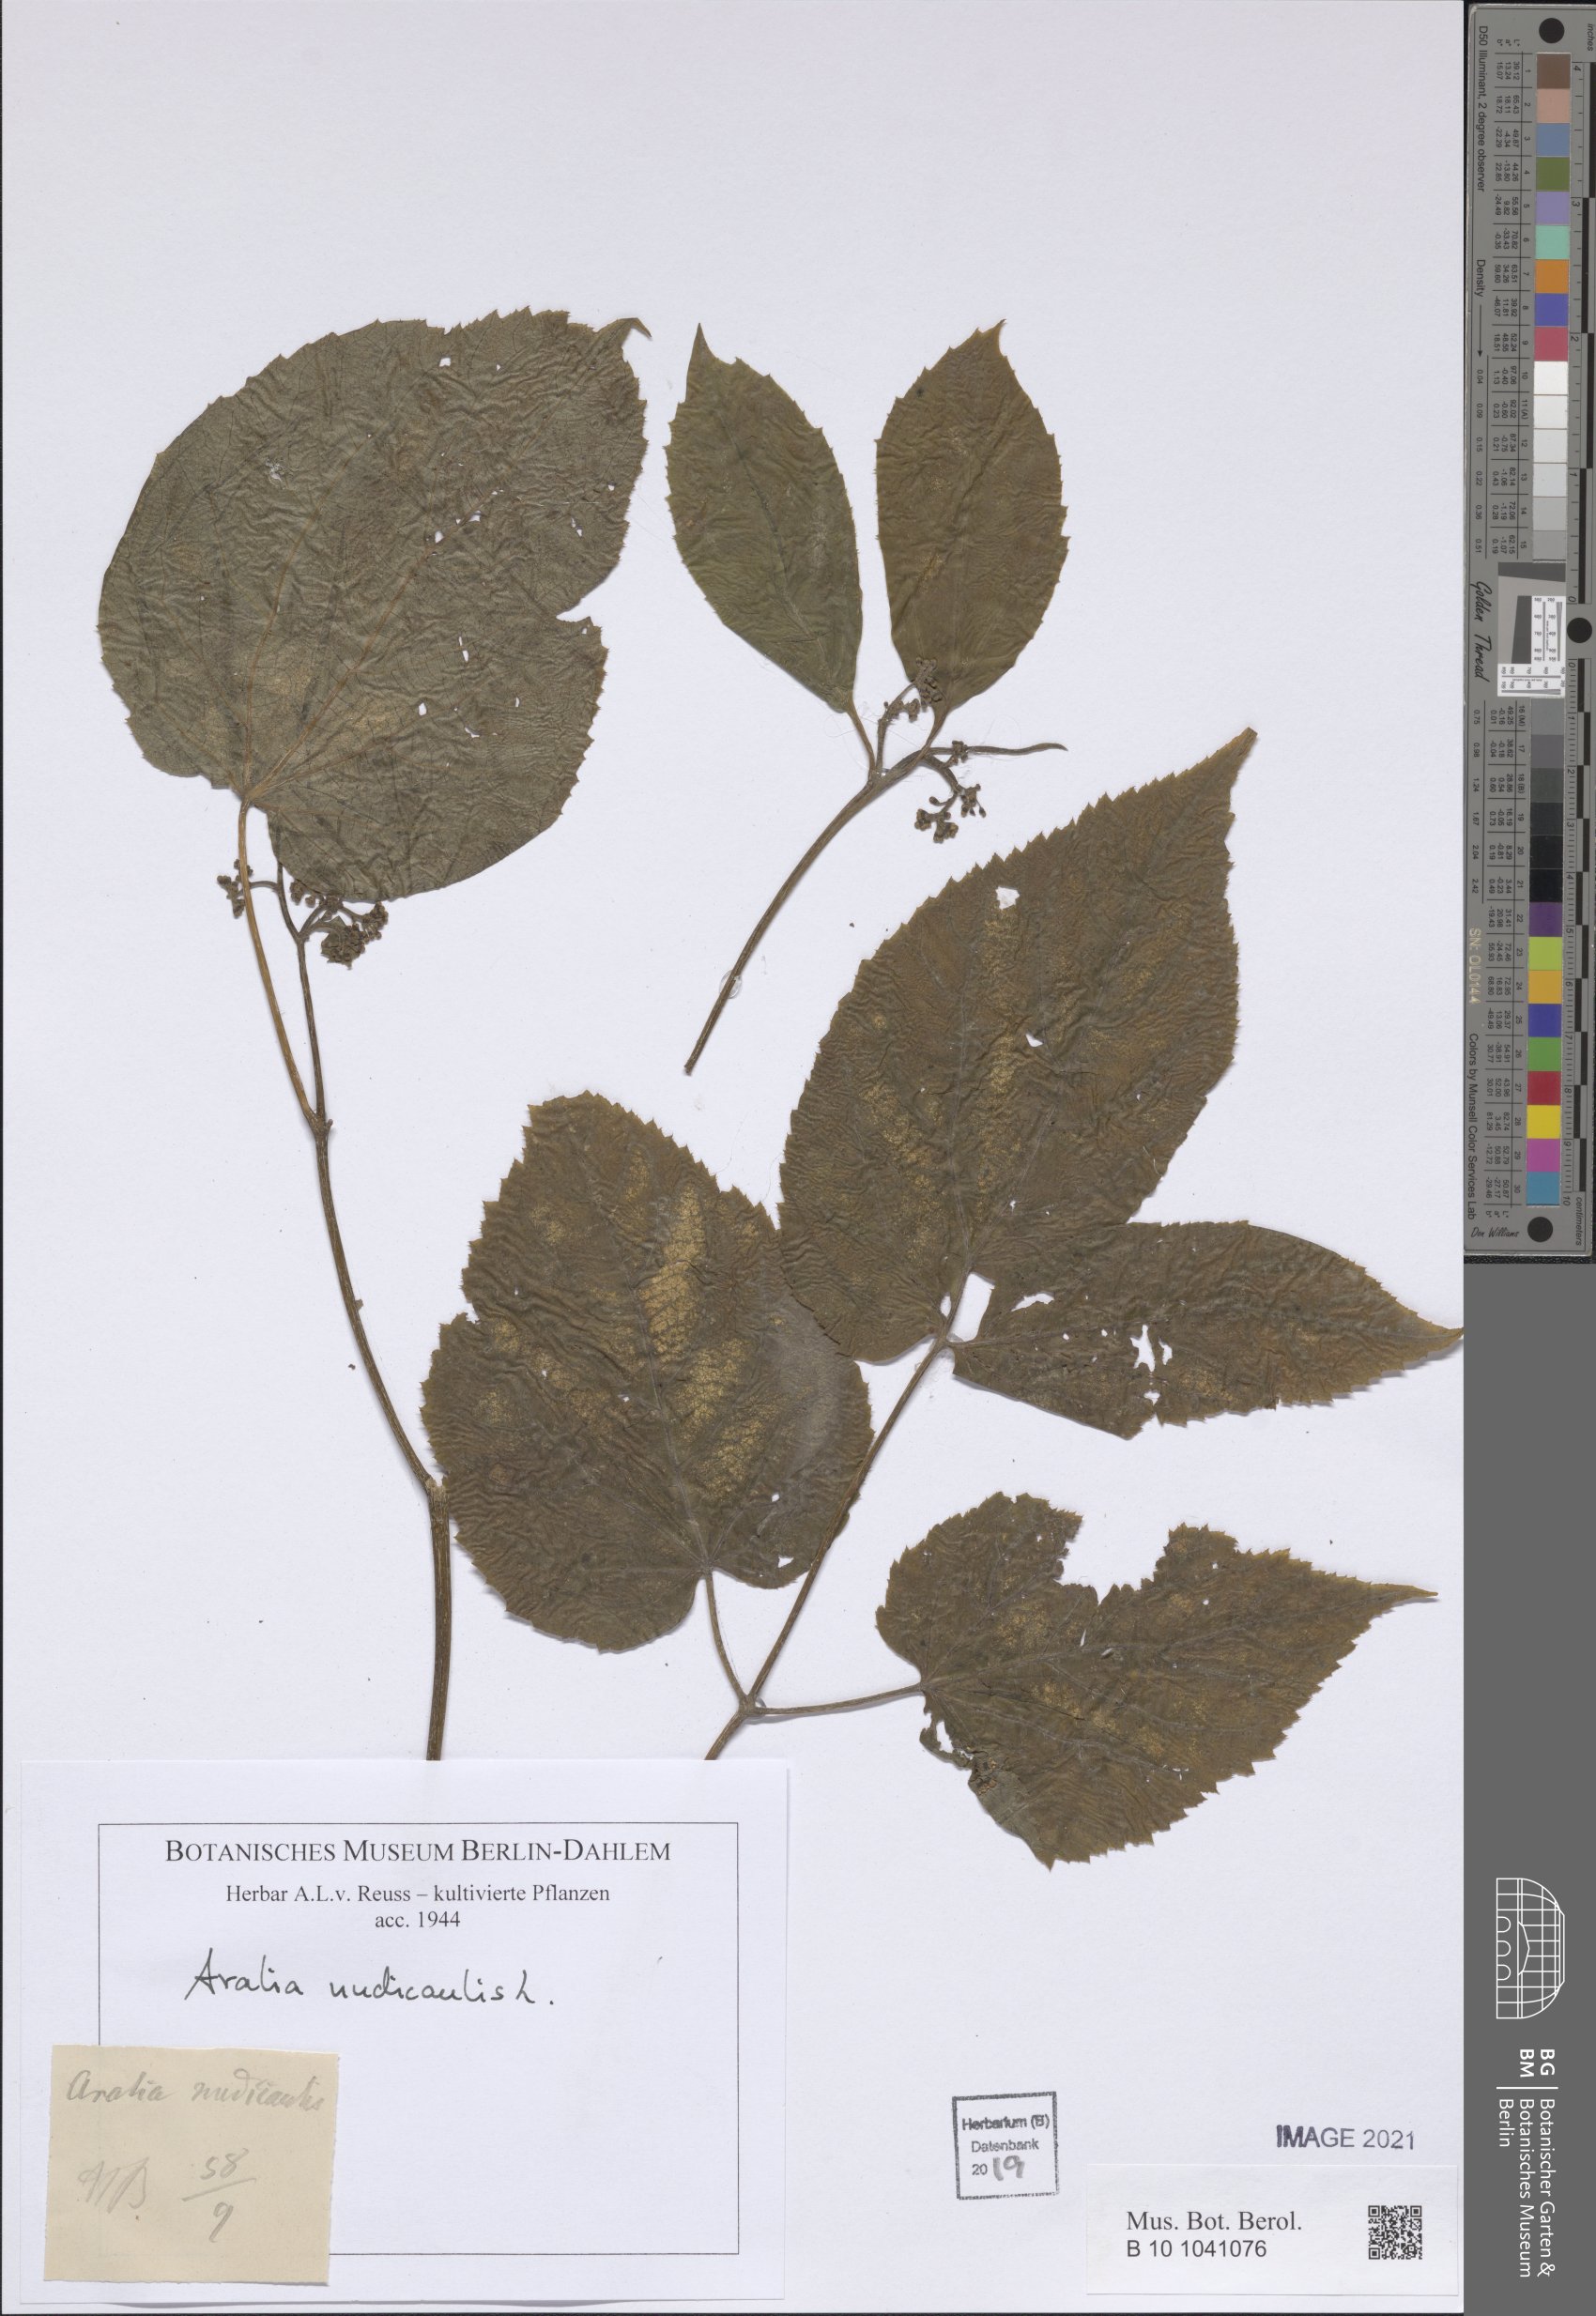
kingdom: Plantae
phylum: Tracheophyta
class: Magnoliopsida
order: Apiales
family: Araliaceae
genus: Aralia
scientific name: Aralia nudicaulis
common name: Wild sarsaparilla
